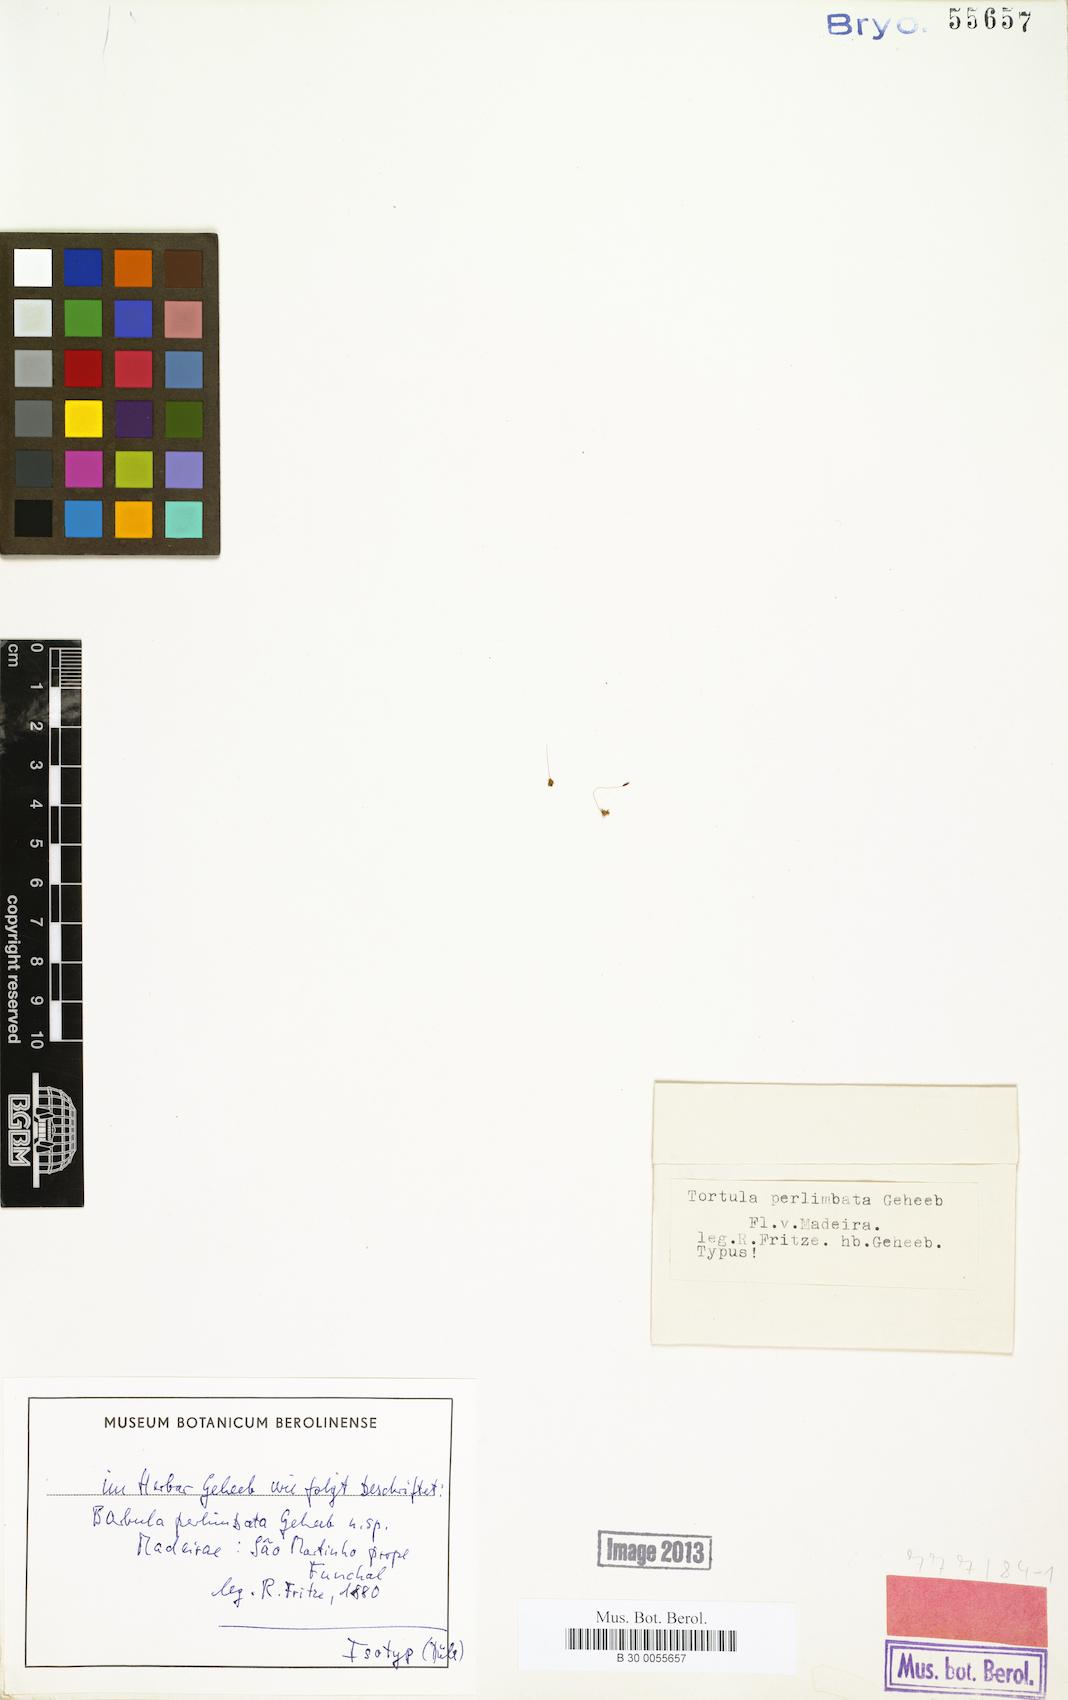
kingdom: Plantae
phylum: Bryophyta
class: Bryopsida
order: Pottiales
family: Pottiaceae
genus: Tortula
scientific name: Tortula solmsii
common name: Solms' screw-moss
